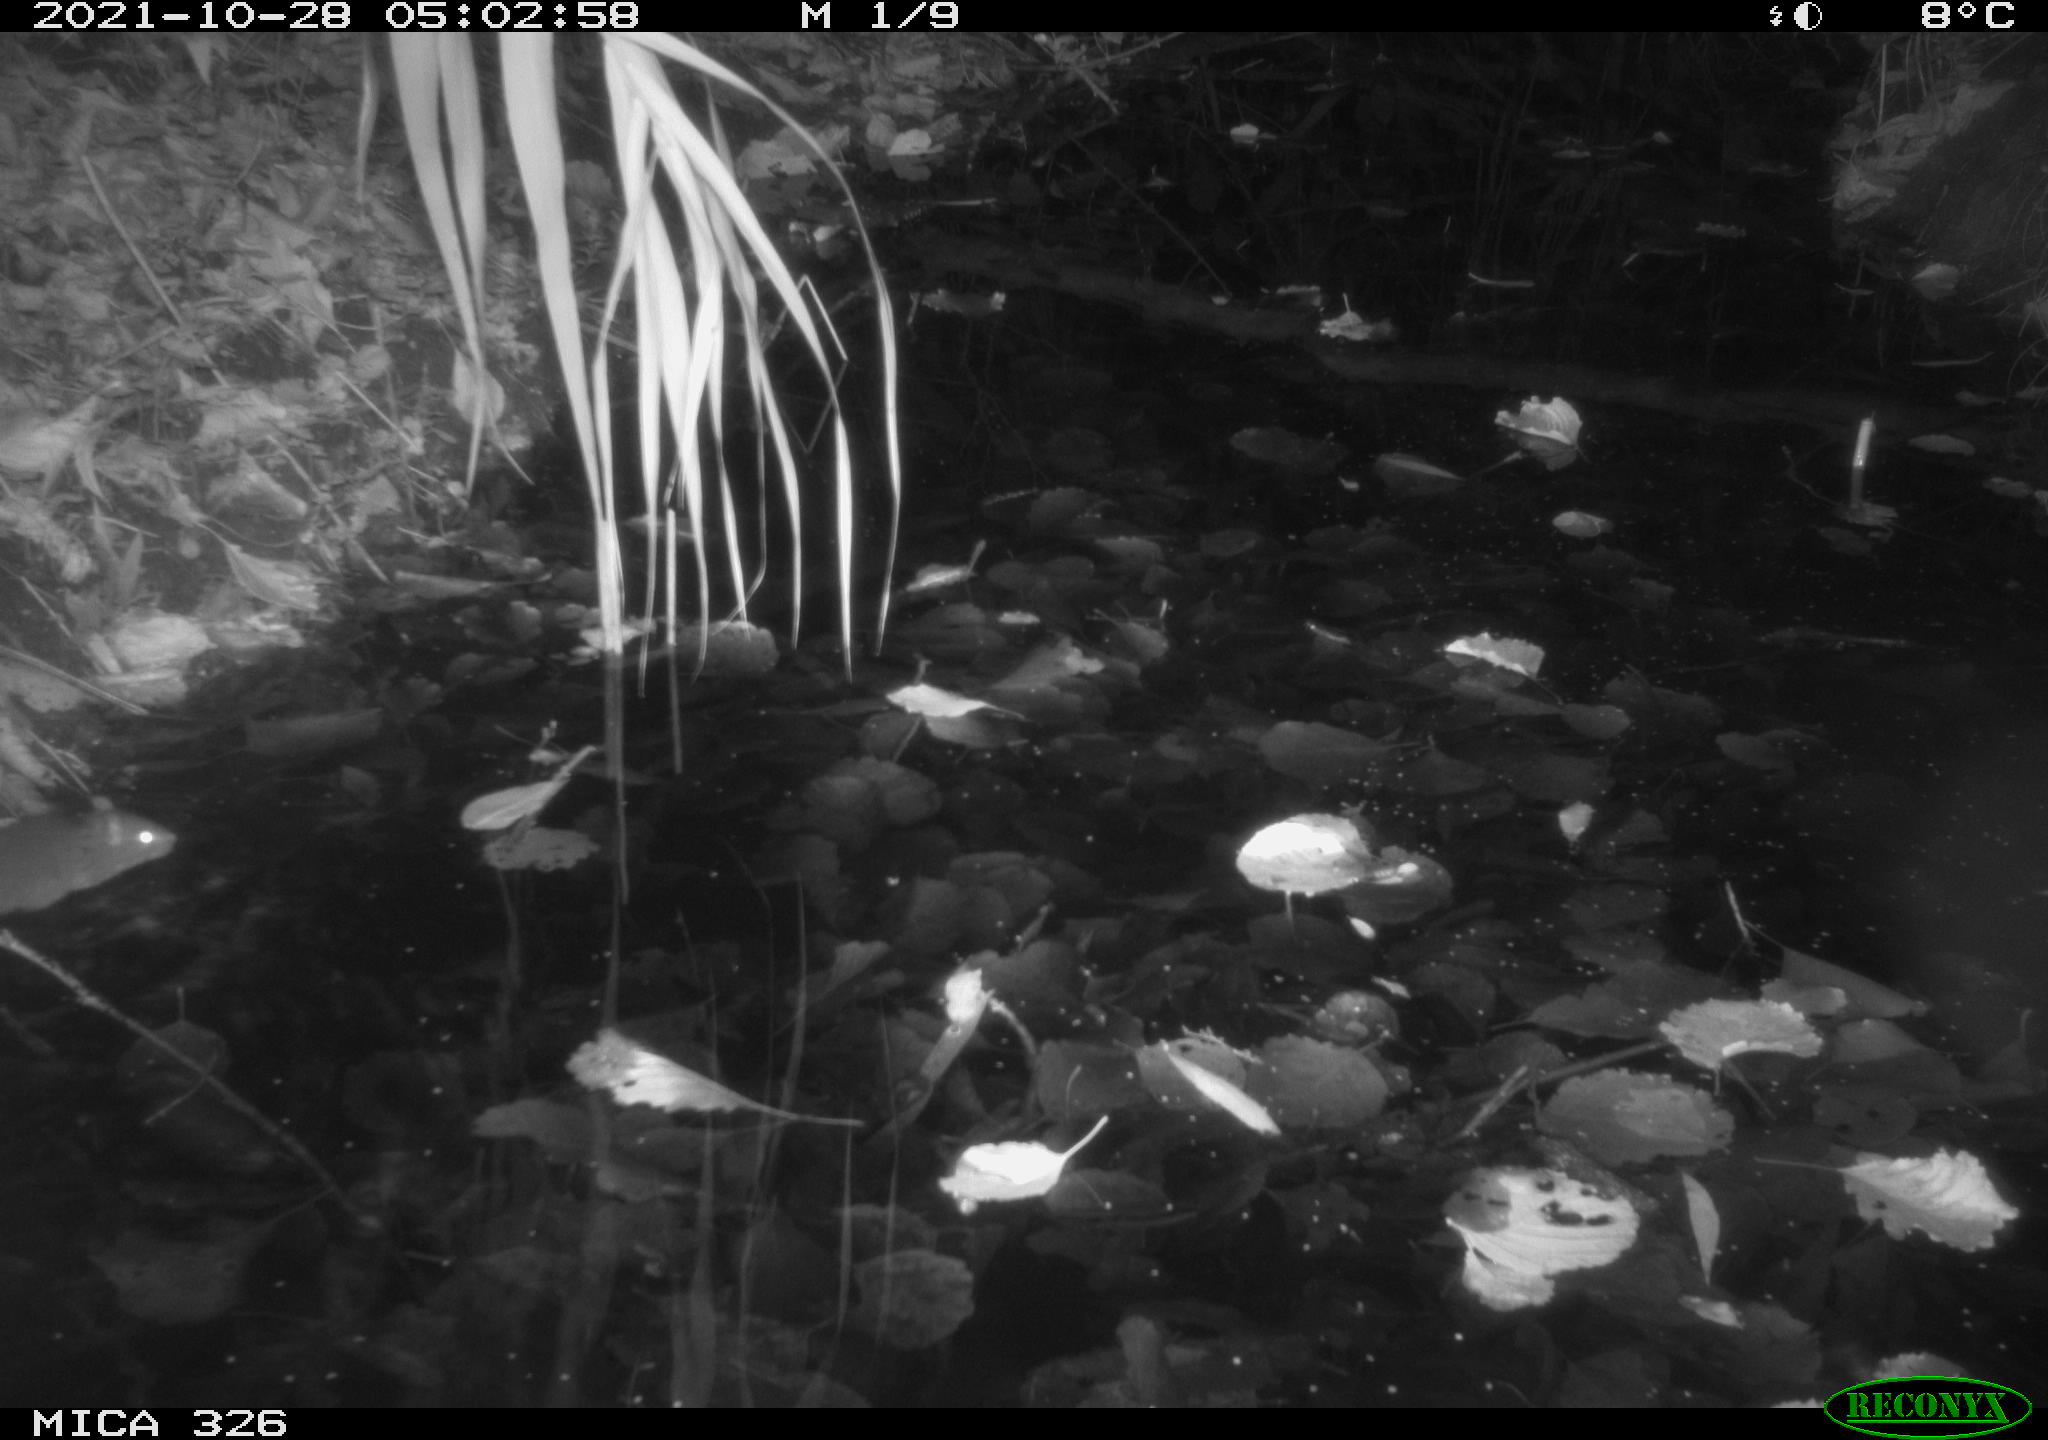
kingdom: Animalia
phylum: Chordata
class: Mammalia
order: Rodentia
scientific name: Rodentia
